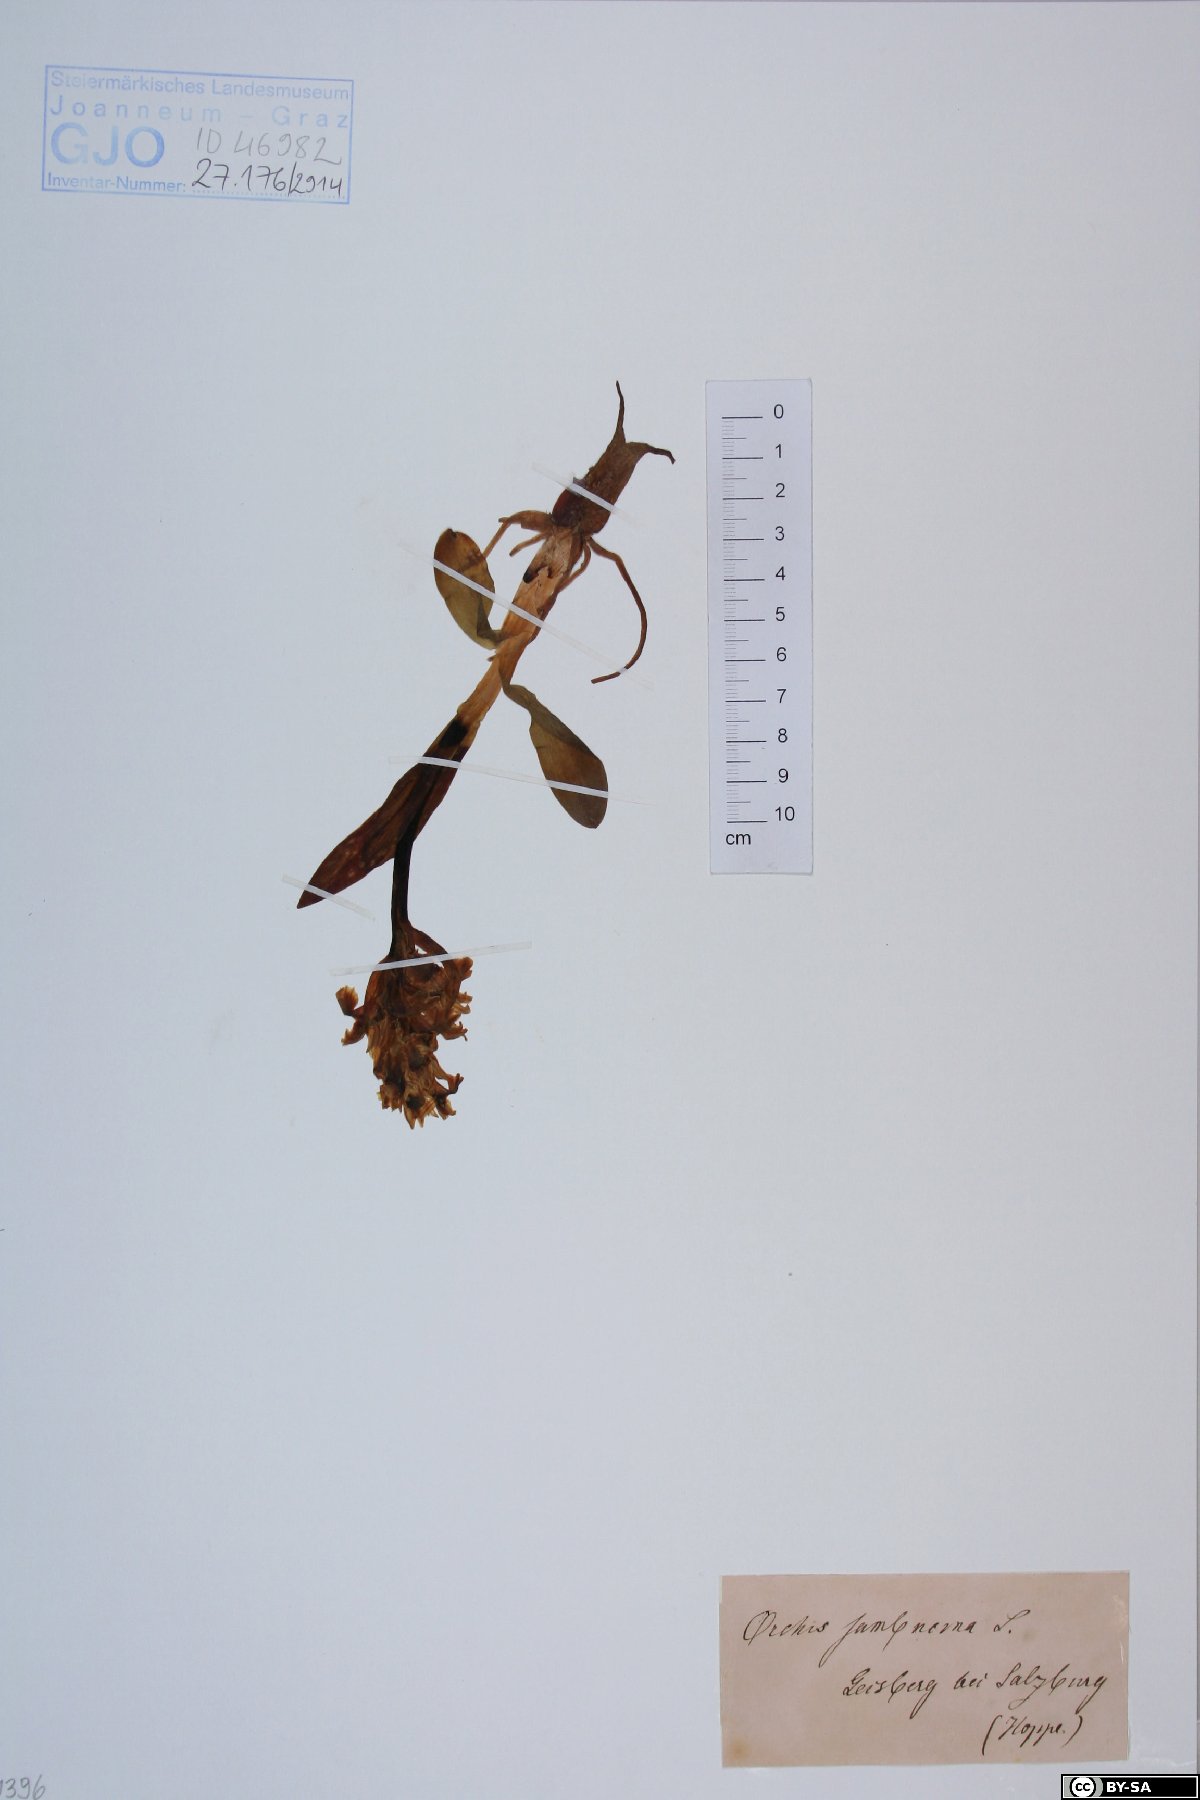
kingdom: Plantae
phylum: Tracheophyta
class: Liliopsida
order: Asparagales
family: Orchidaceae
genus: Dactylorhiza
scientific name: Dactylorhiza sambucina
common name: Elder-flowered orchid
